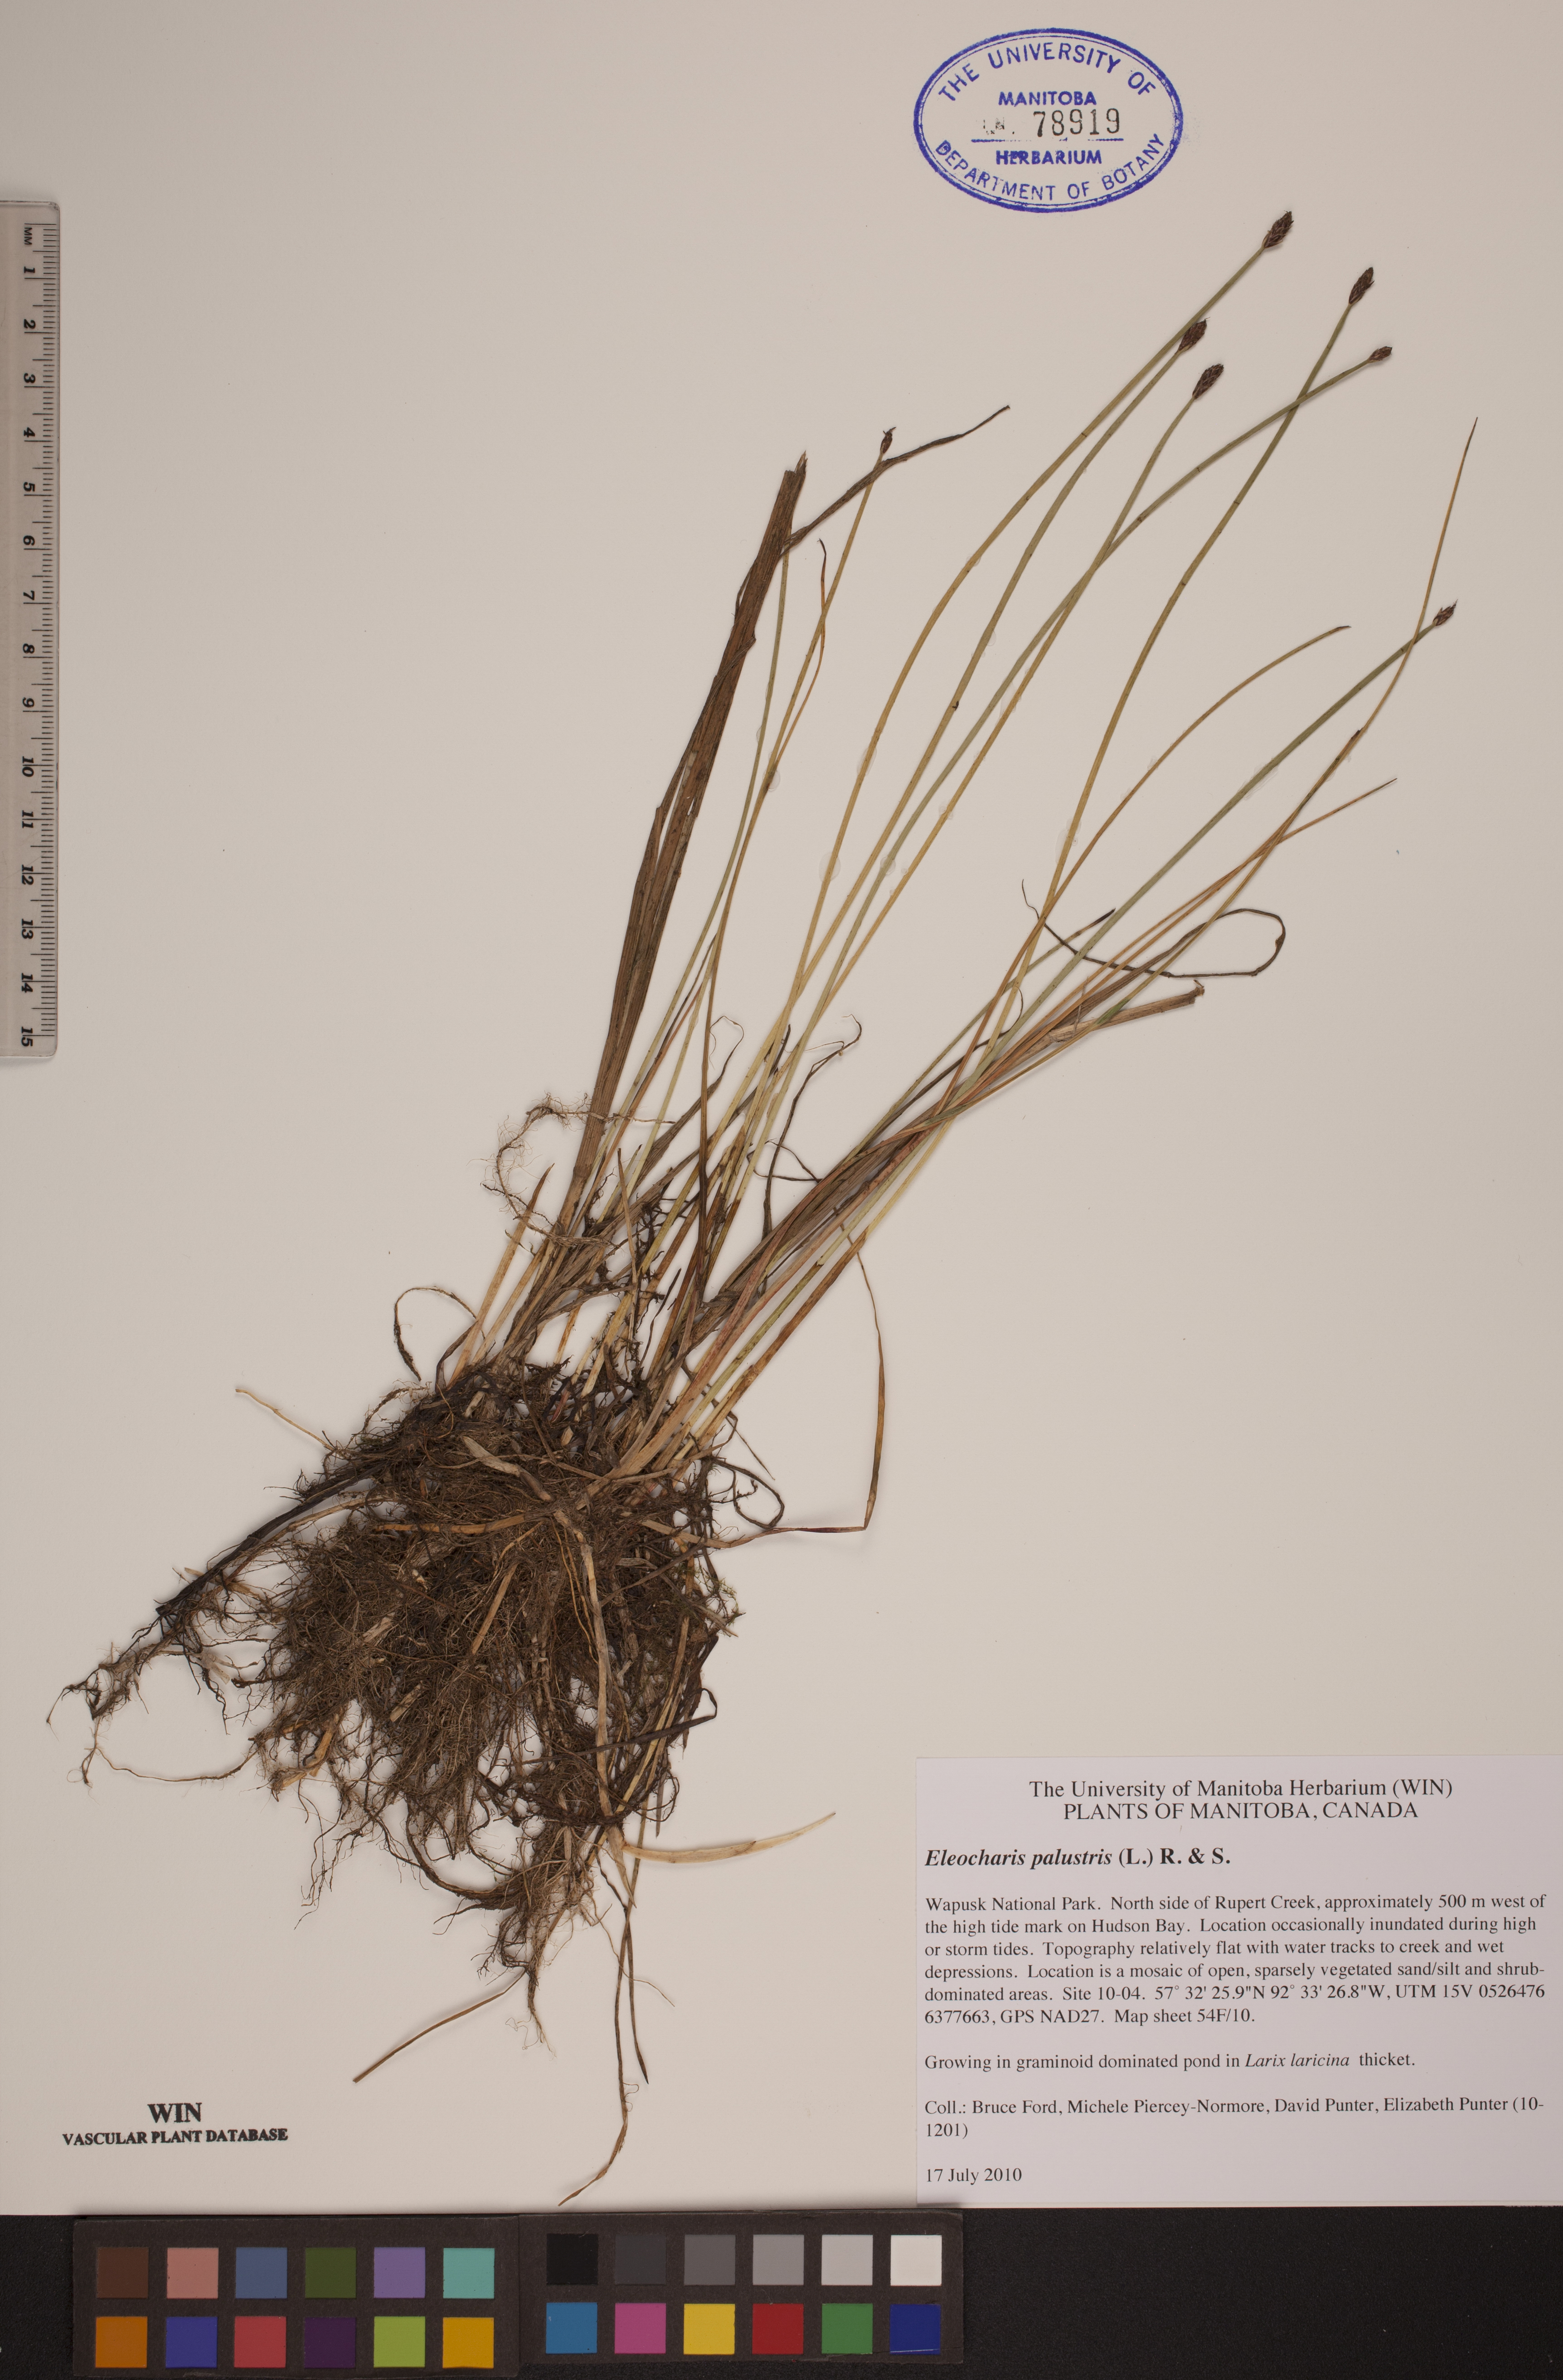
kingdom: Plantae
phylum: Tracheophyta
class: Liliopsida
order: Poales
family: Cyperaceae
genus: Eleocharis
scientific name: Eleocharis palustris
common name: Common spike-rush
